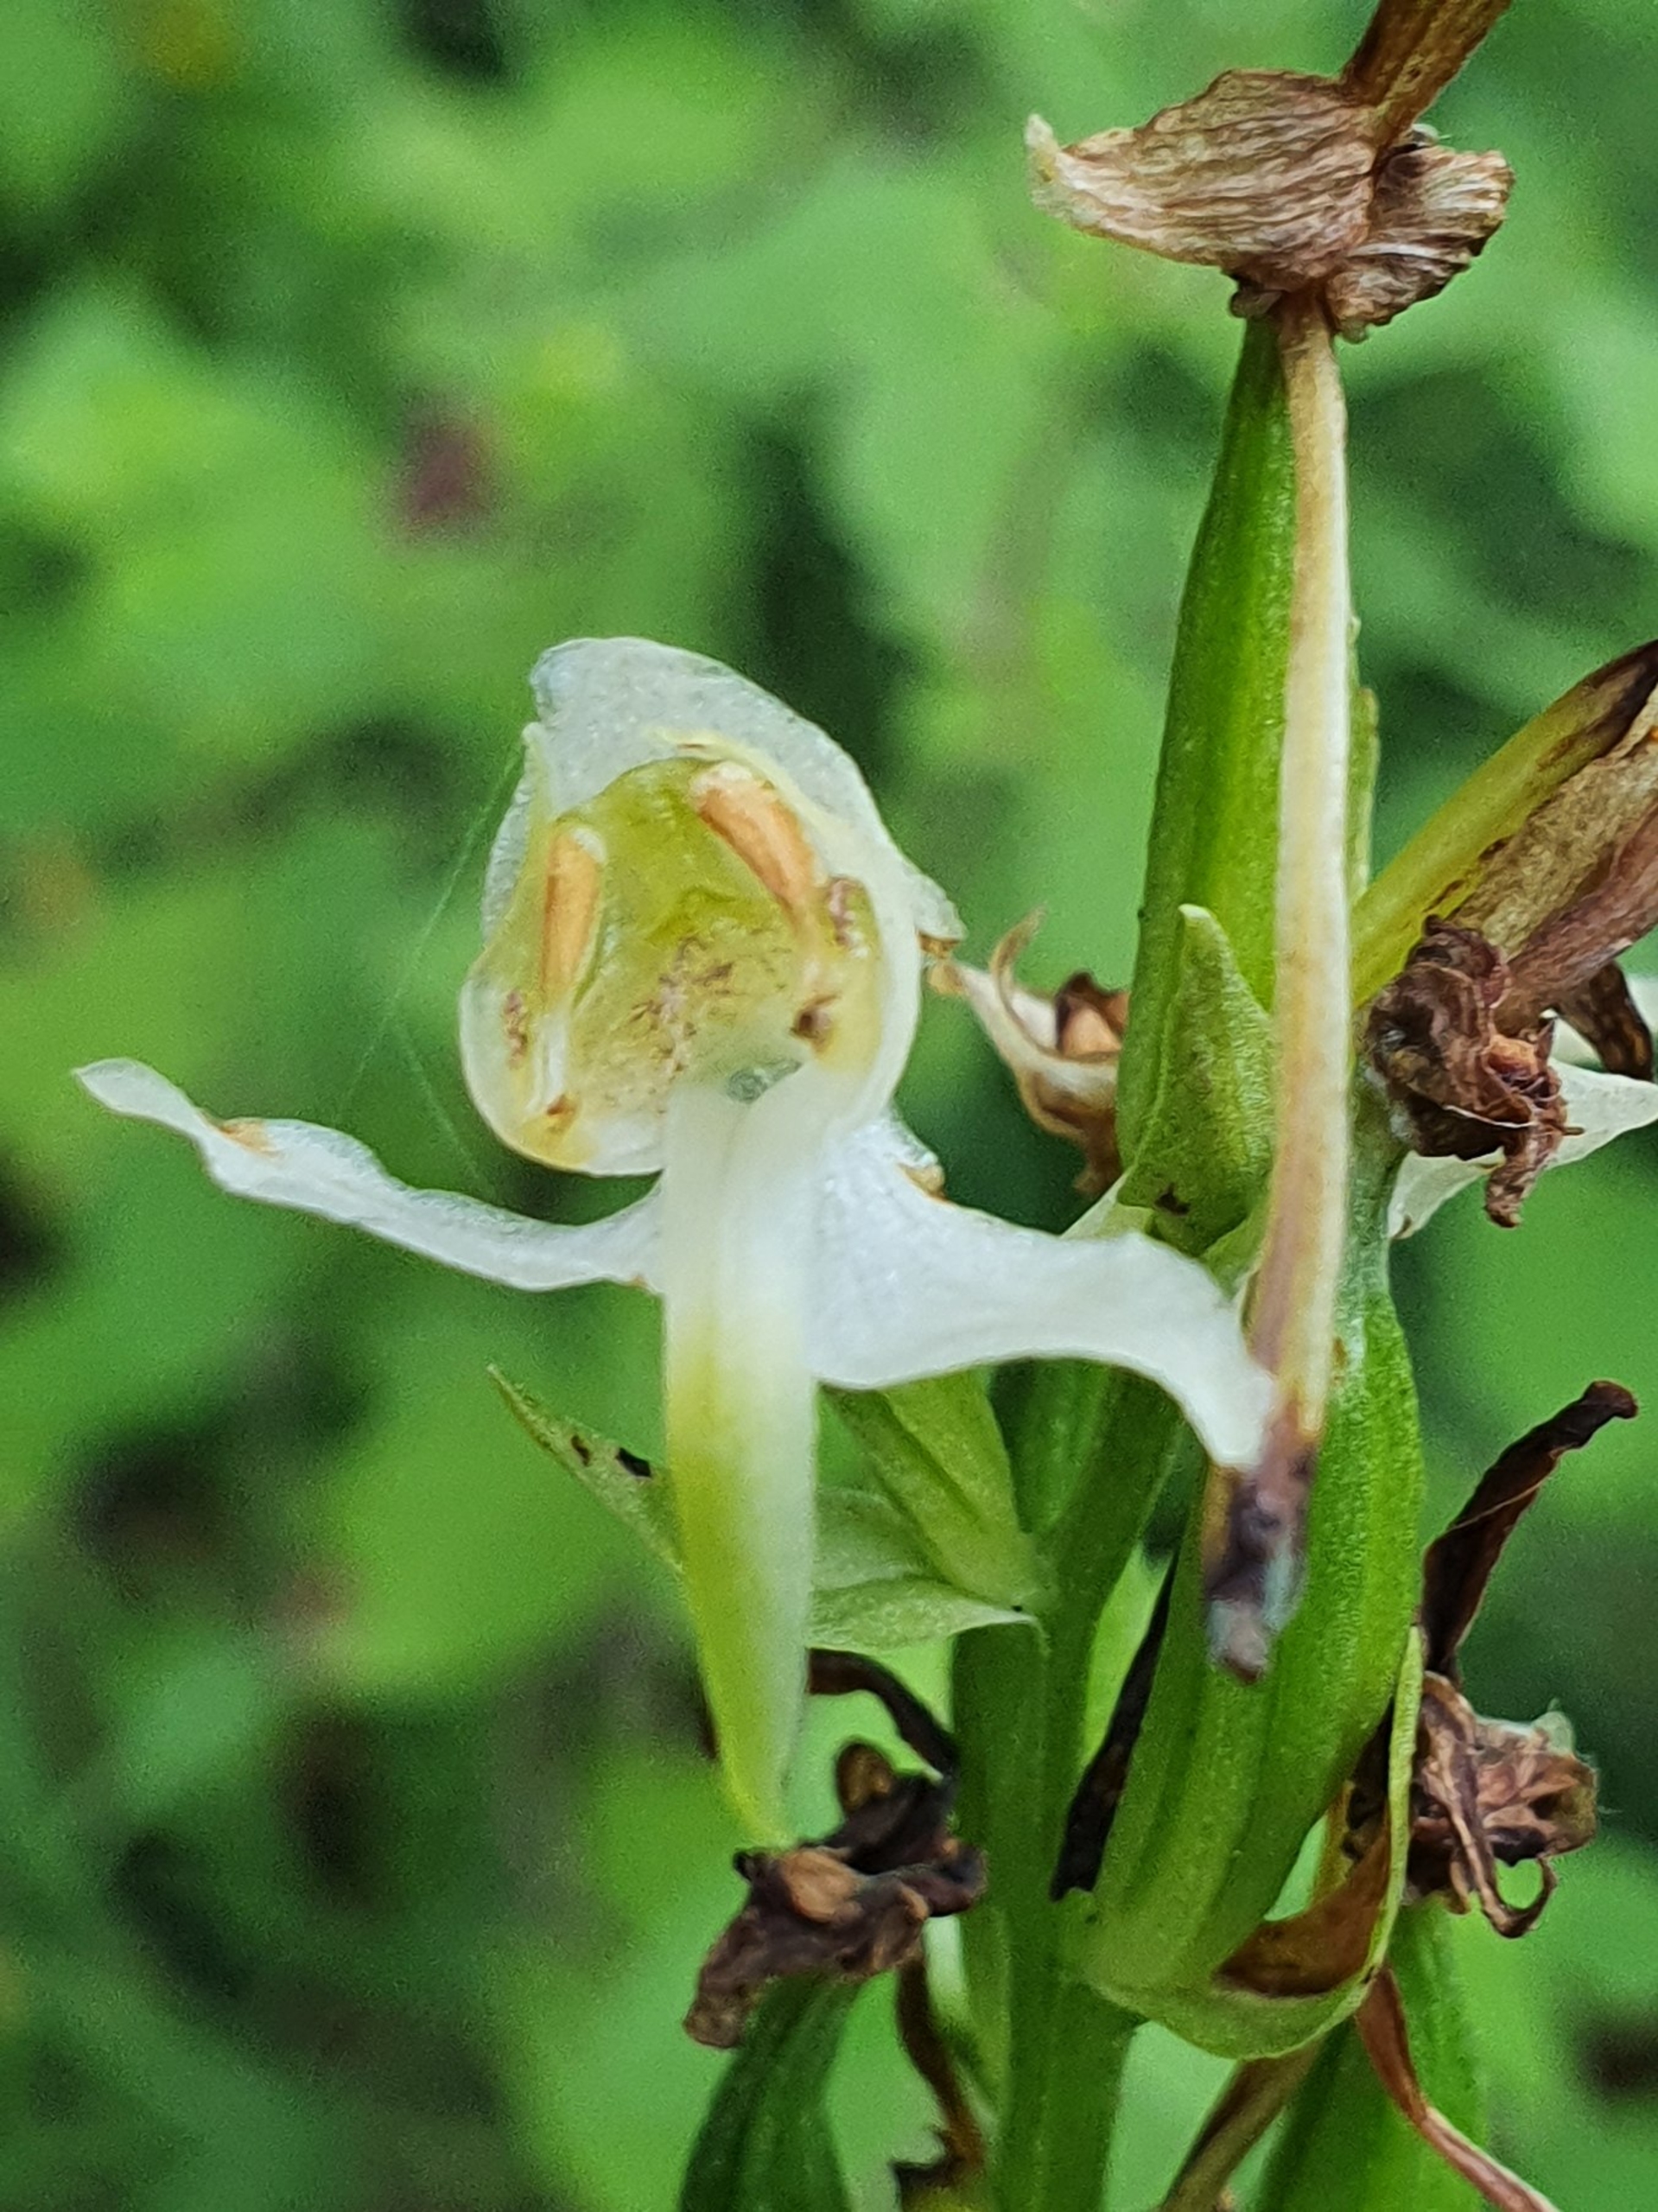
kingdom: Plantae
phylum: Tracheophyta
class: Liliopsida
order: Asparagales
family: Orchidaceae
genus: Platanthera
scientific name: Platanthera chlorantha
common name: Skov-gøgelilje
